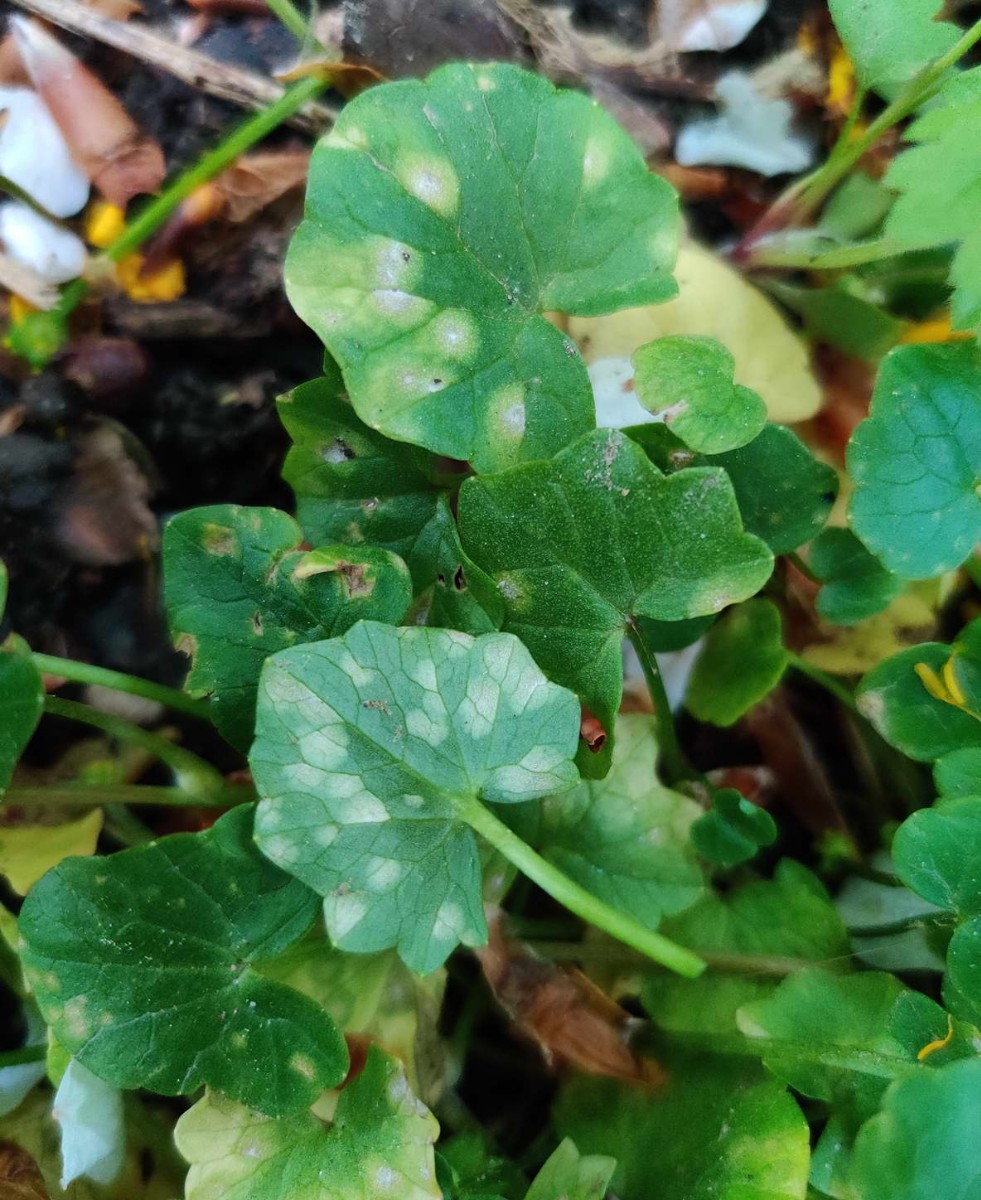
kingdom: Fungi
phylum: Basidiomycota
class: Exobasidiomycetes
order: Entylomatales
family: Entylomataceae
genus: Entyloma
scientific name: Entyloma ficariae
